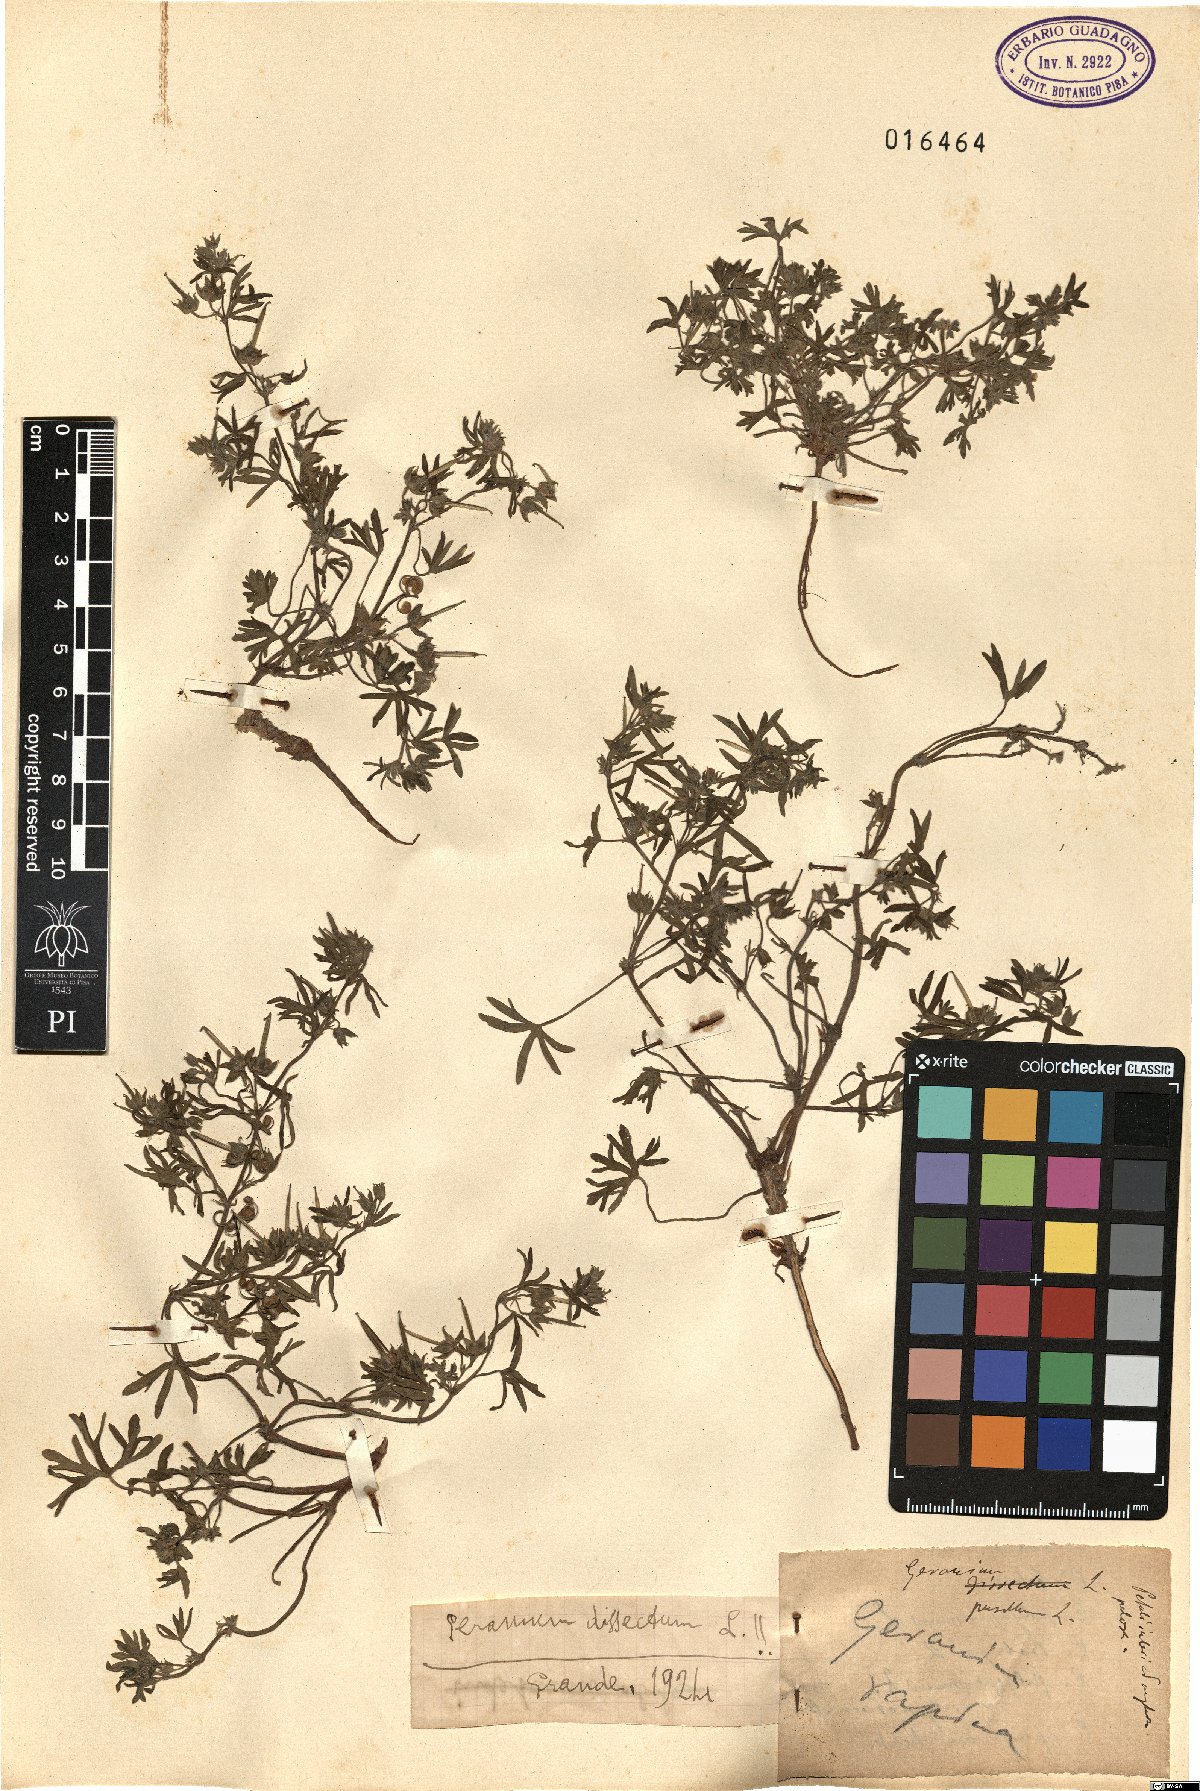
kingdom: Plantae
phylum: Tracheophyta
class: Magnoliopsida
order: Geraniales
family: Geraniaceae
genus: Geranium
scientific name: Geranium dissectum
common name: Cut-leaved crane's-bill
